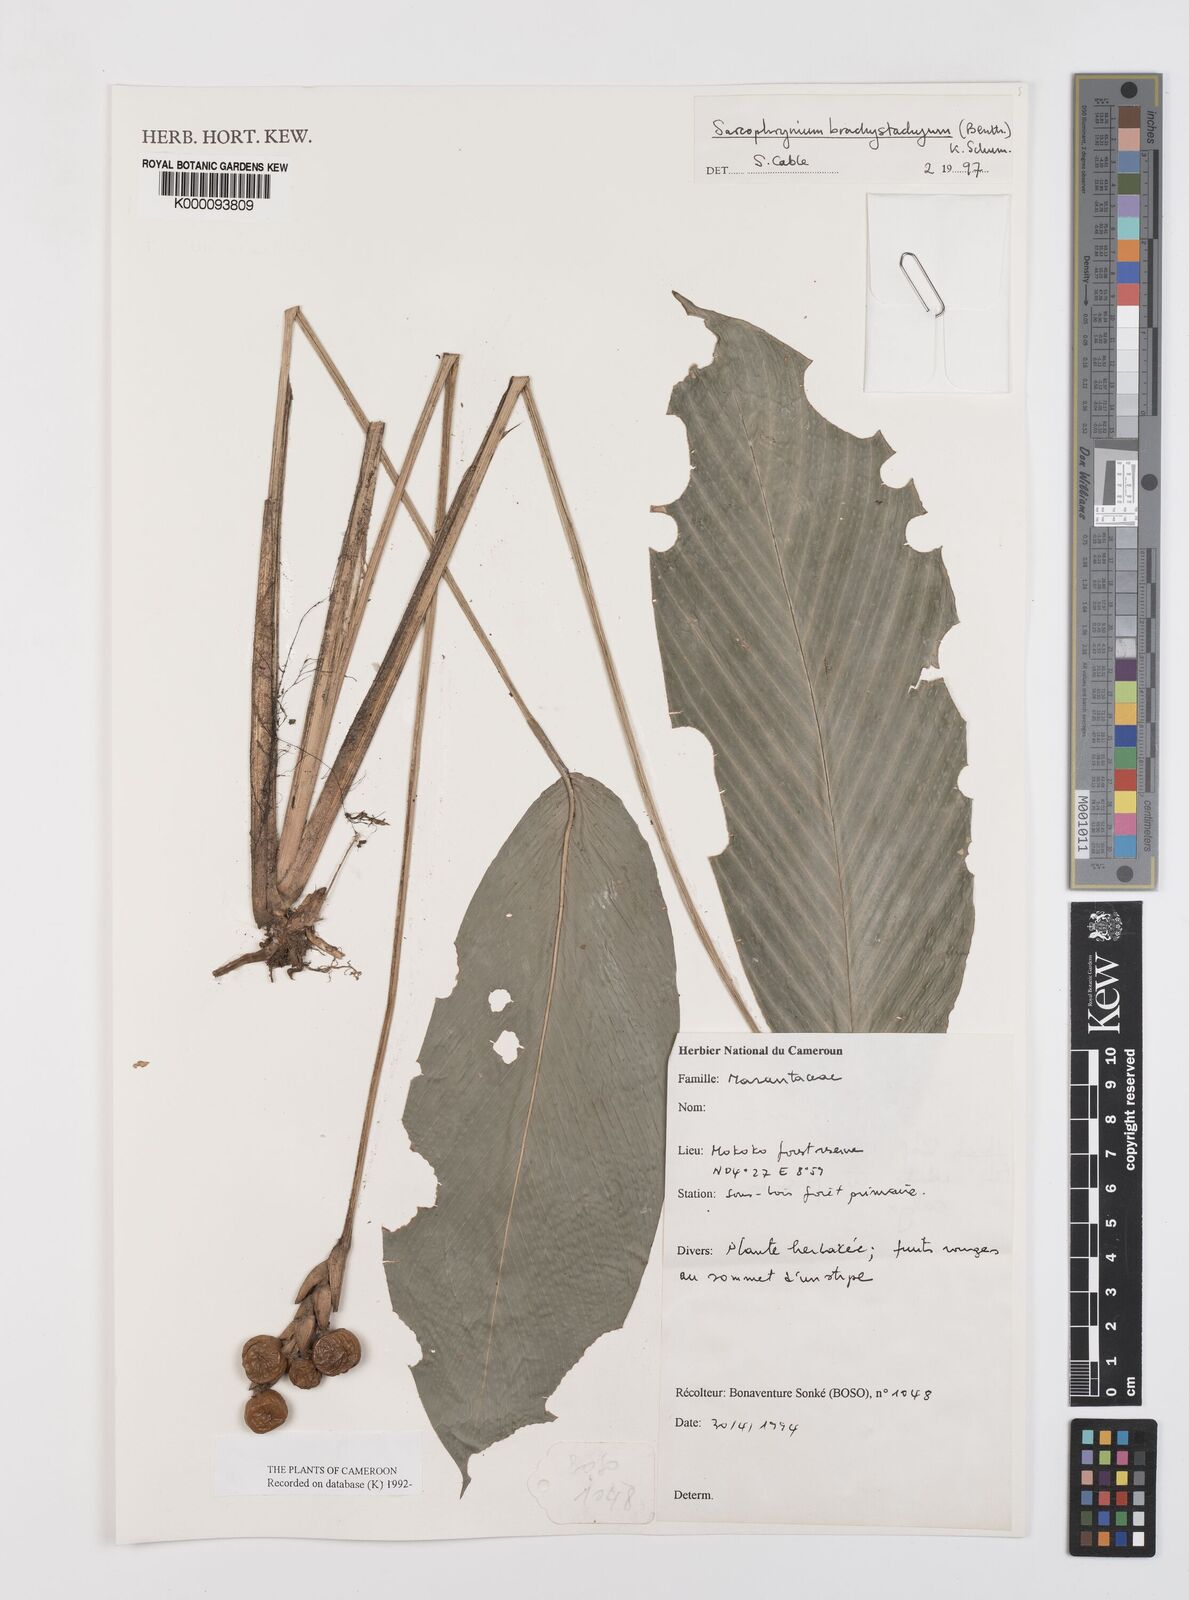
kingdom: Plantae
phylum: Tracheophyta
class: Liliopsida
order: Zingiberales
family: Marantaceae
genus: Sarcophrynium
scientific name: Sarcophrynium
